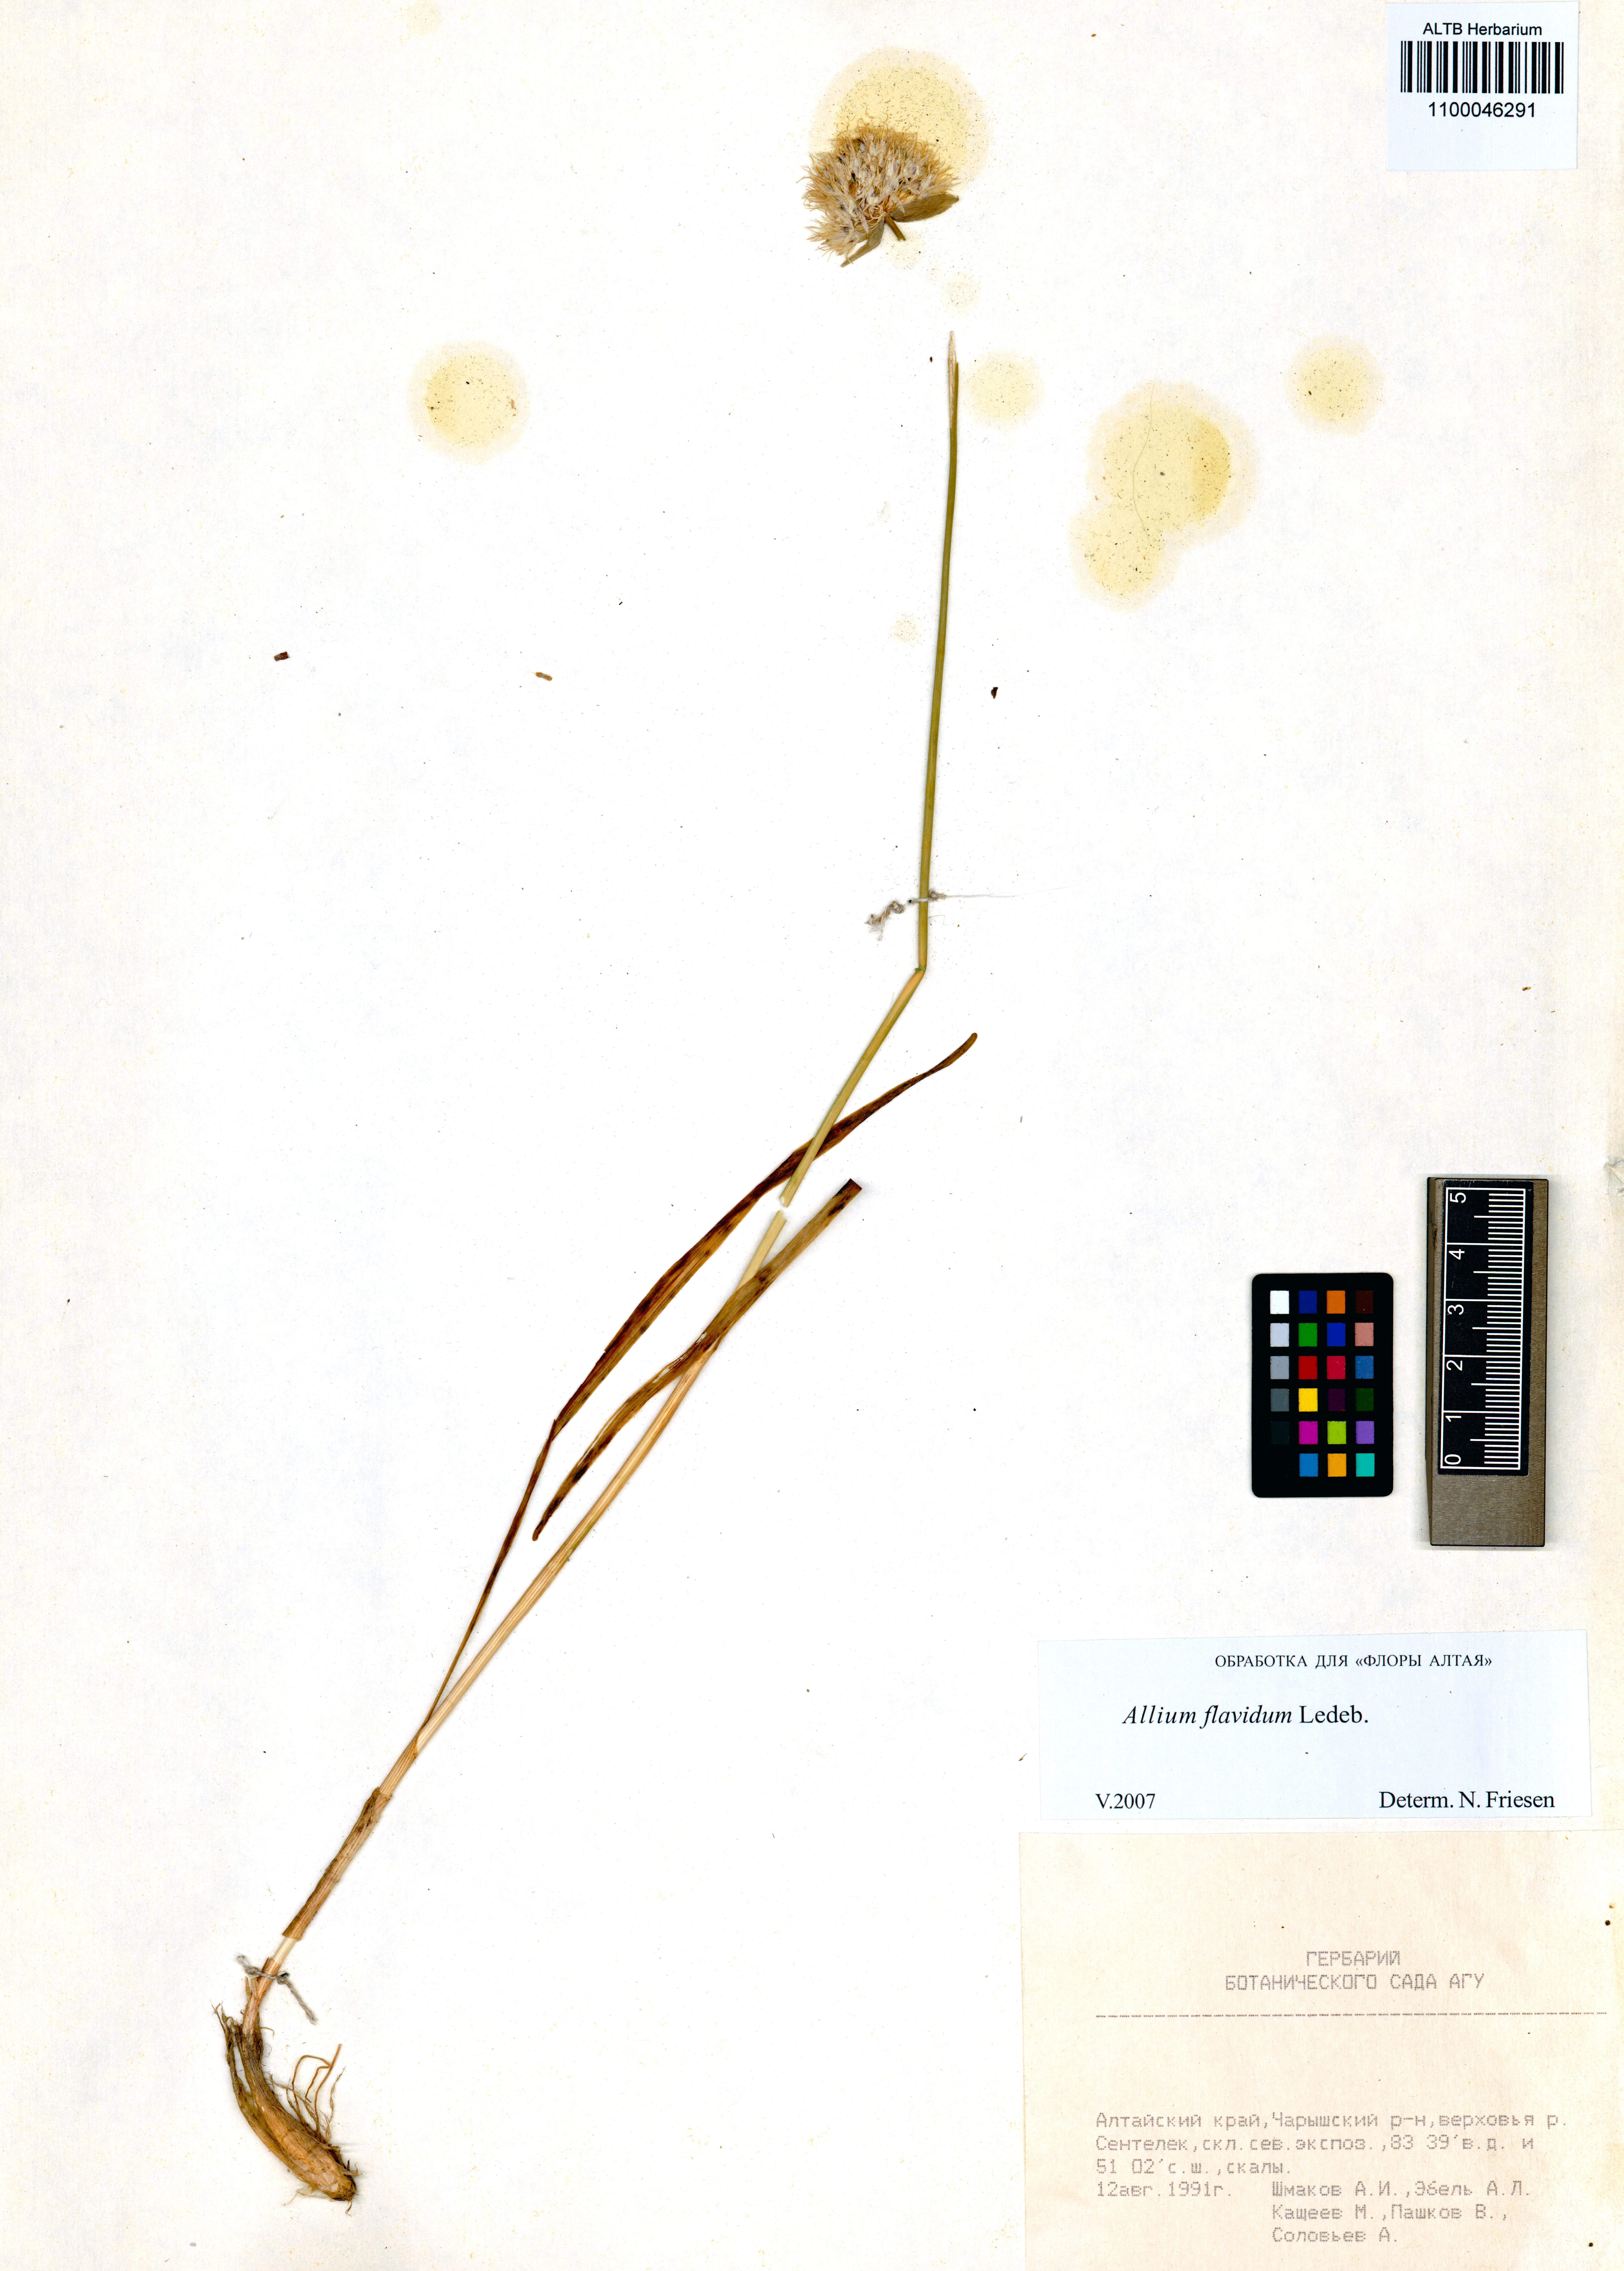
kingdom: Plantae
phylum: Tracheophyta
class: Liliopsida
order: Asparagales
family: Amaryllidaceae
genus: Allium
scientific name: Allium flavidum
